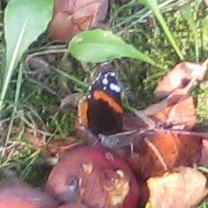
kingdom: Animalia
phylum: Arthropoda
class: Insecta
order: Lepidoptera
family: Nymphalidae
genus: Vanessa
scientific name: Vanessa atalanta
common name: Red Admiral
